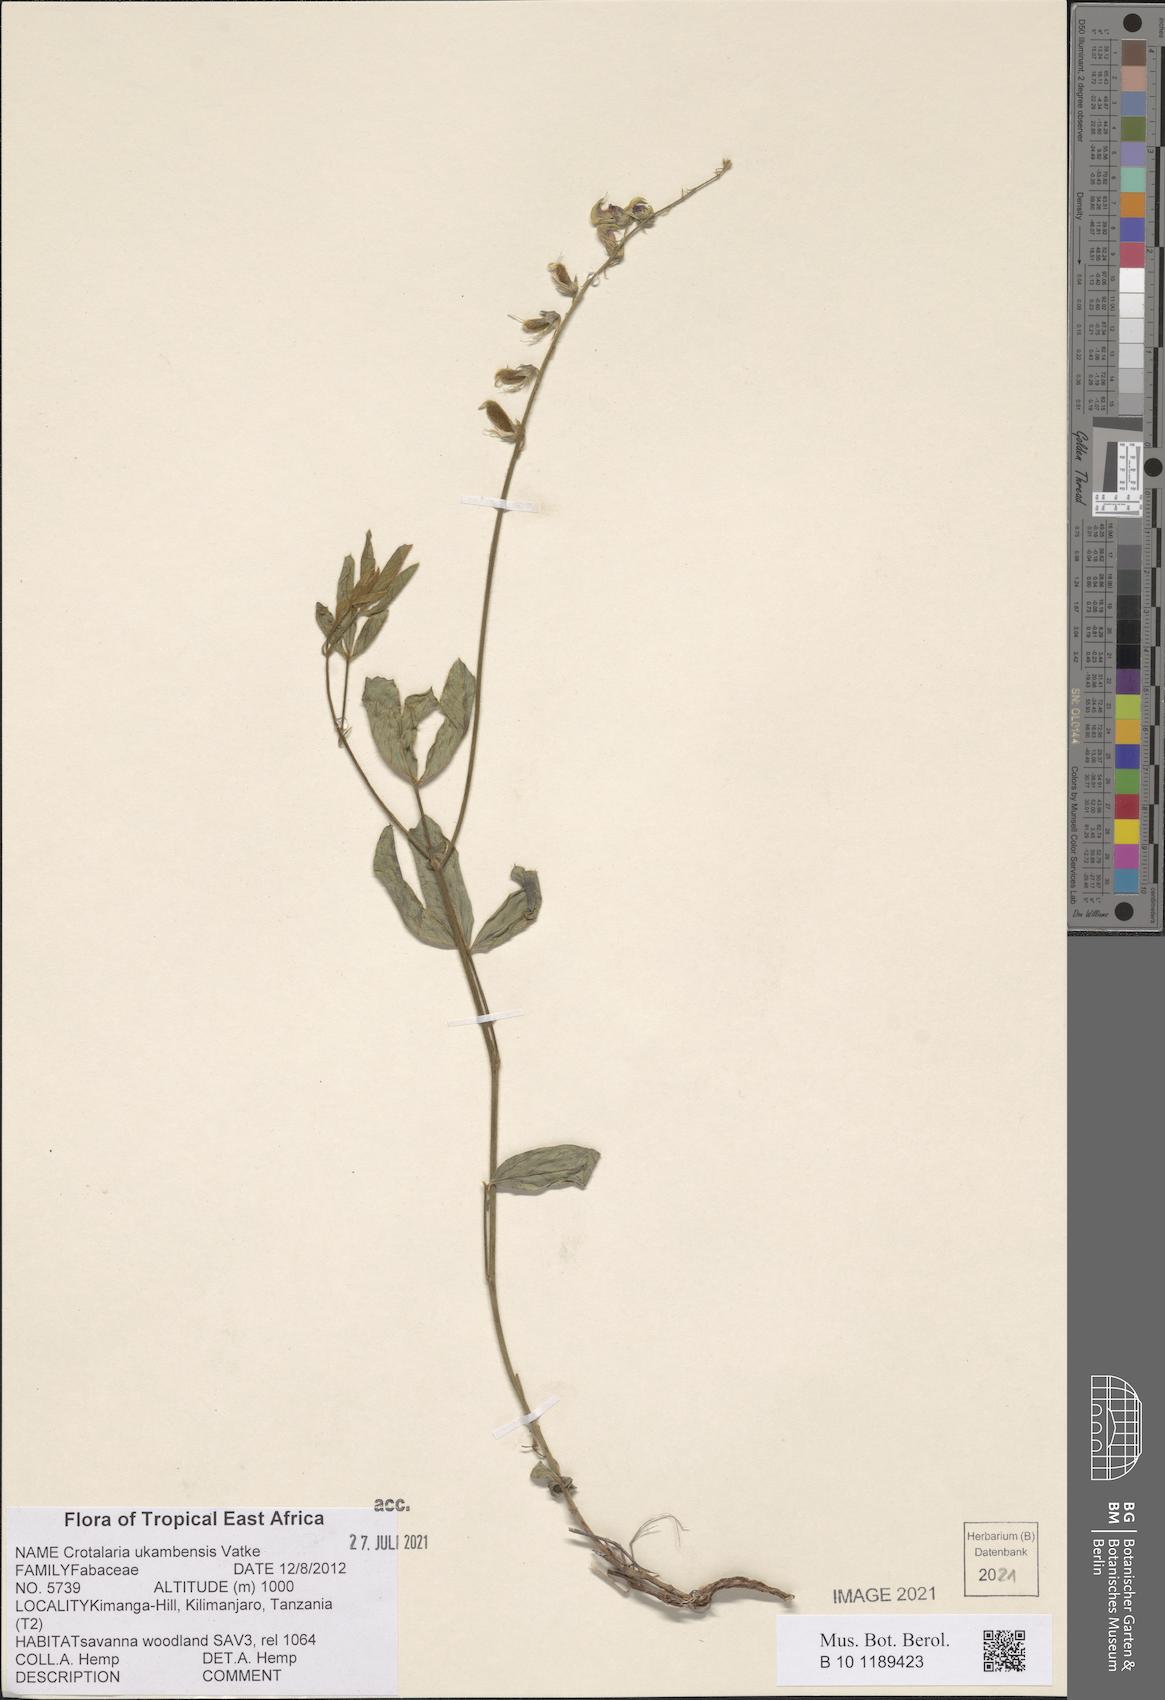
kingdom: Plantae
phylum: Tracheophyta
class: Magnoliopsida
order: Fabales
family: Fabaceae
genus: Crotalaria
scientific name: Crotalaria ukambensis
